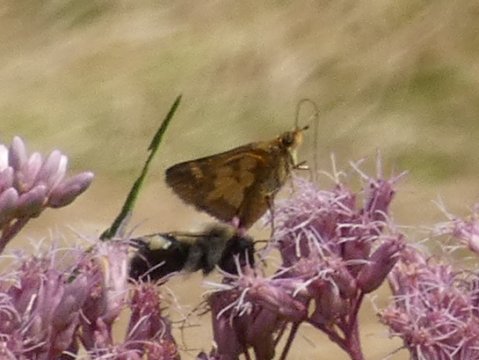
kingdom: Animalia
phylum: Arthropoda
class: Insecta
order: Lepidoptera
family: Hesperiidae
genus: Polites
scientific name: Polites coras
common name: Peck's Skipper
